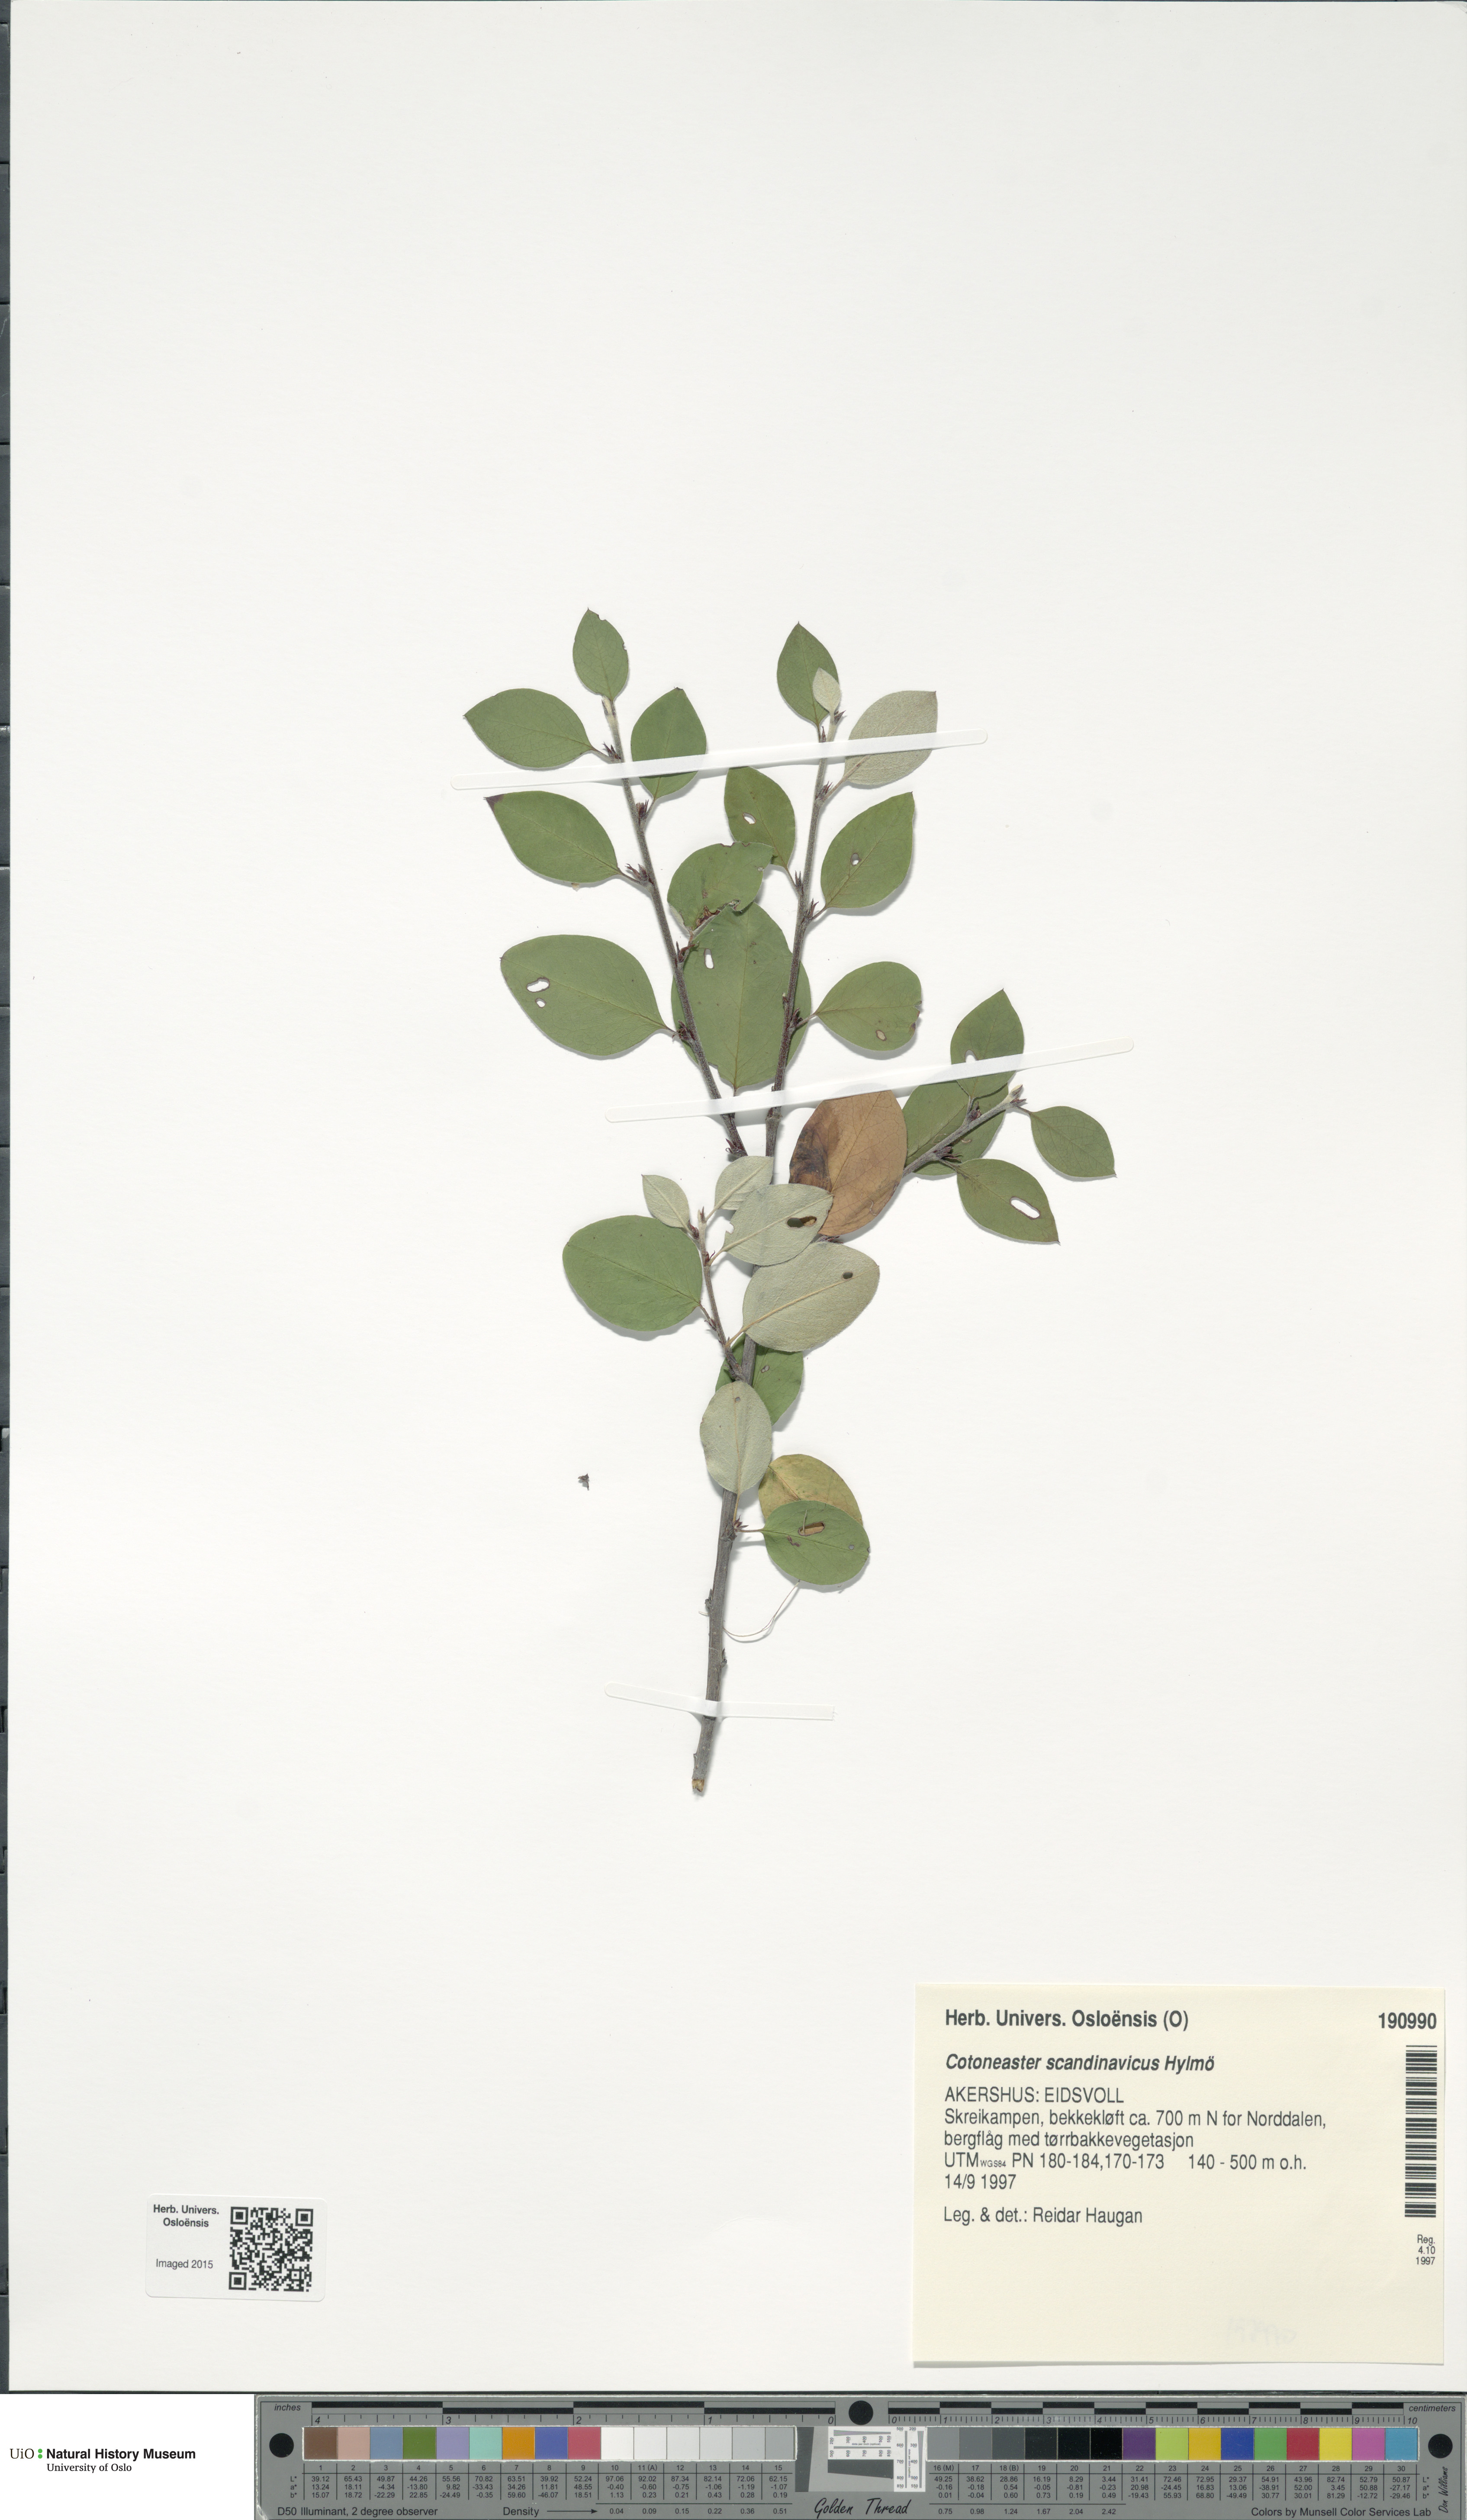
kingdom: Plantae
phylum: Tracheophyta
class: Magnoliopsida
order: Rosales
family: Rosaceae
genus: Cotoneaster
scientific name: Cotoneaster integerrimus
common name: Wild cotoneaster
